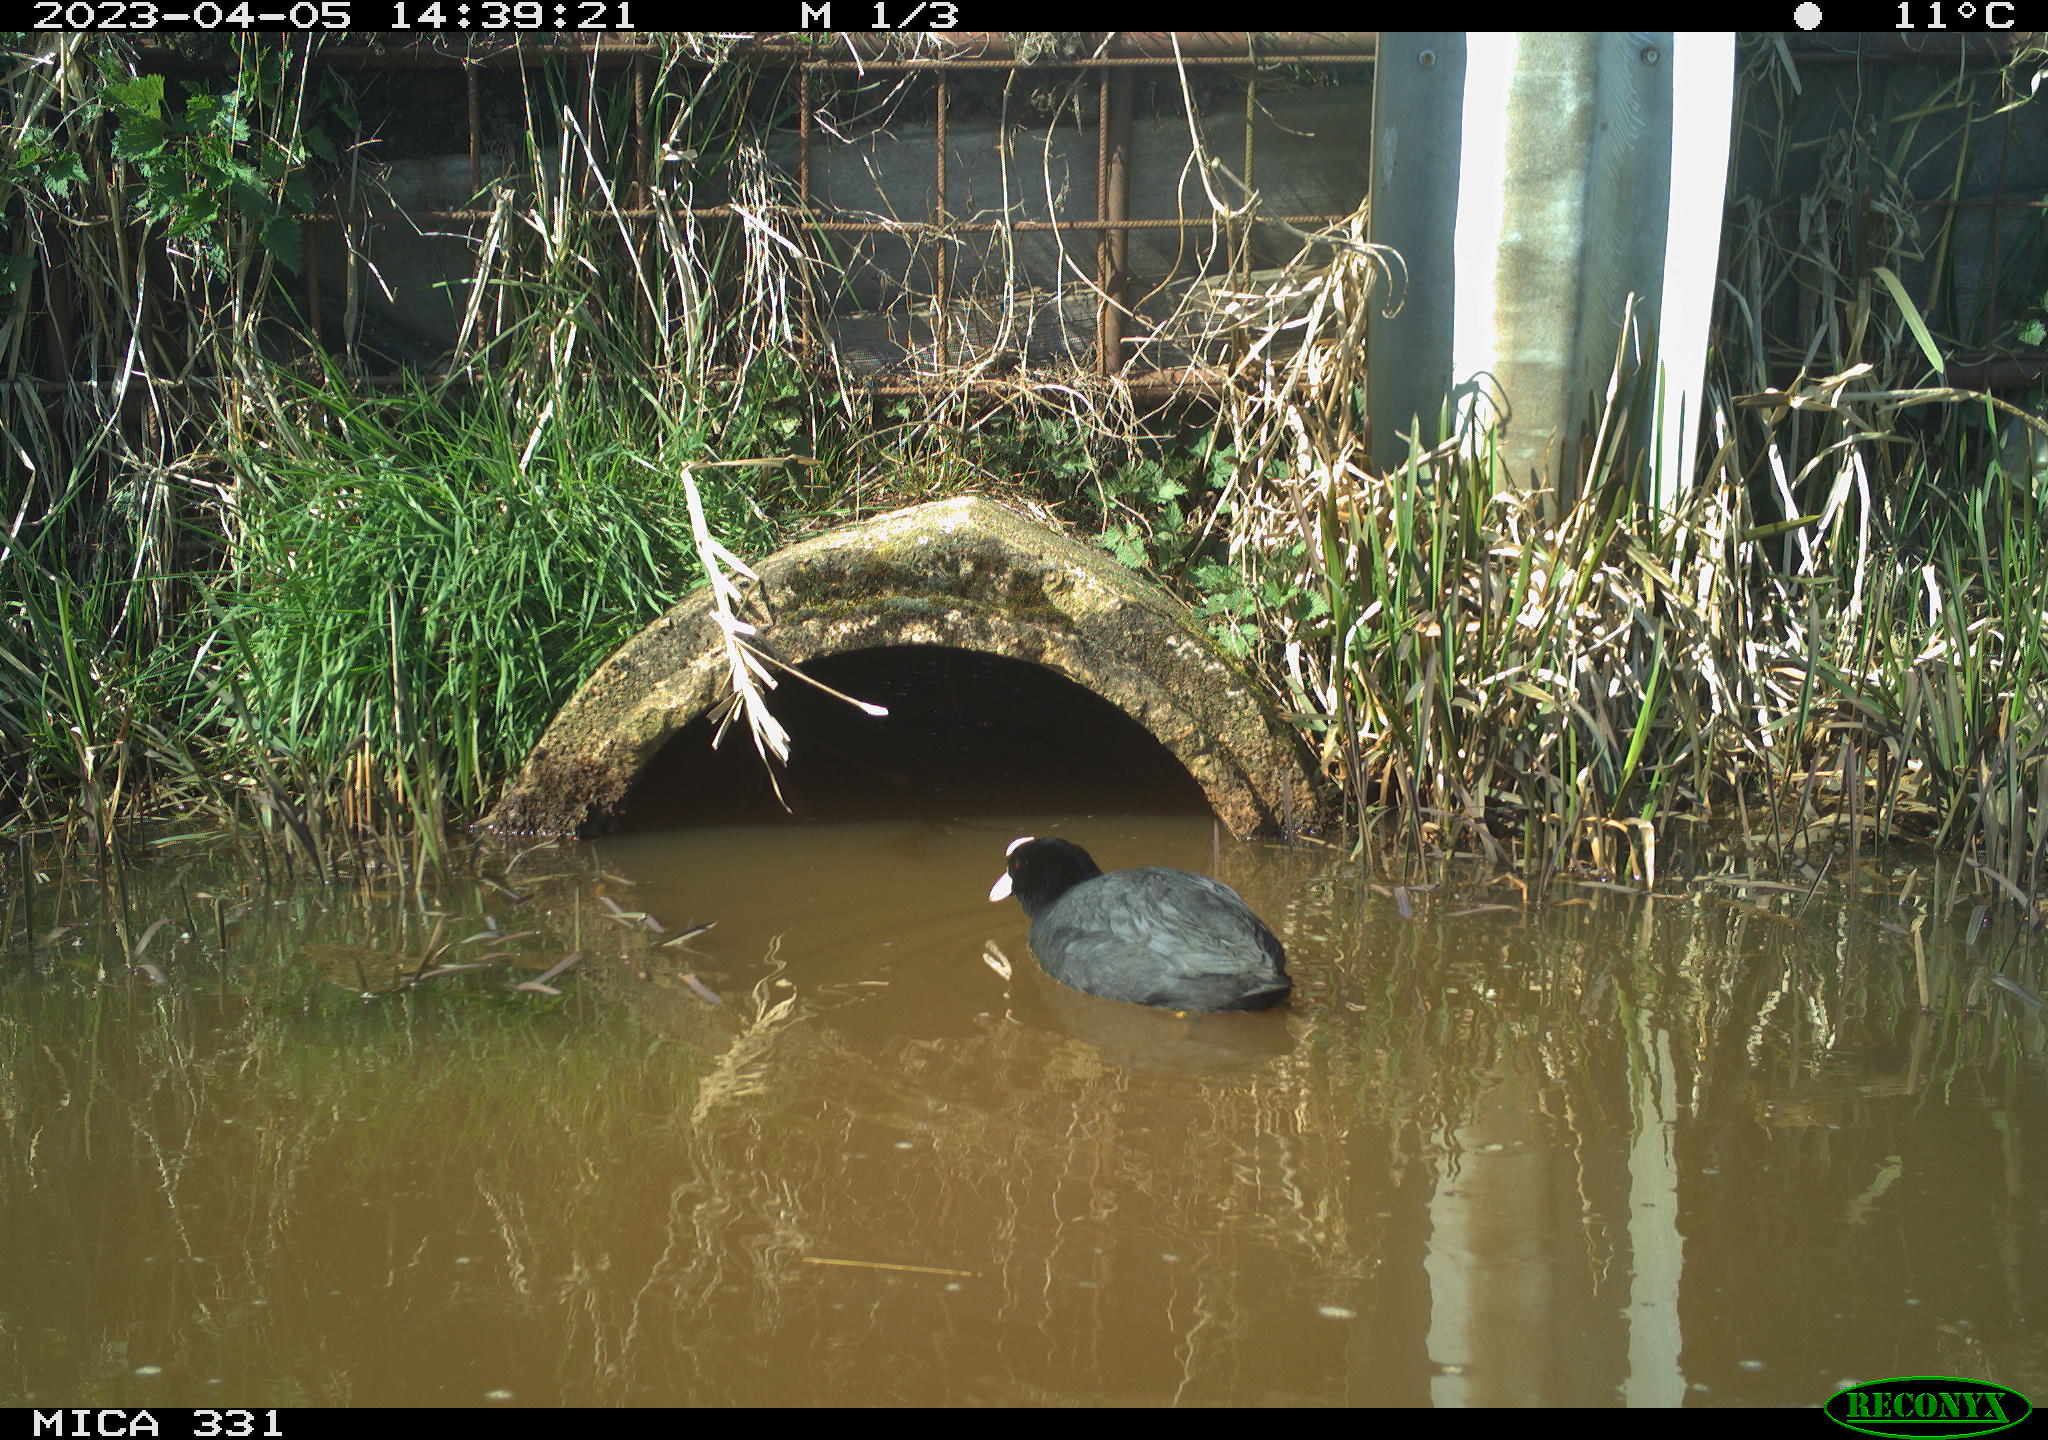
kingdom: Animalia
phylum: Chordata
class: Aves
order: Gruiformes
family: Rallidae
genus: Fulica
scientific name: Fulica atra
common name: Eurasian coot
